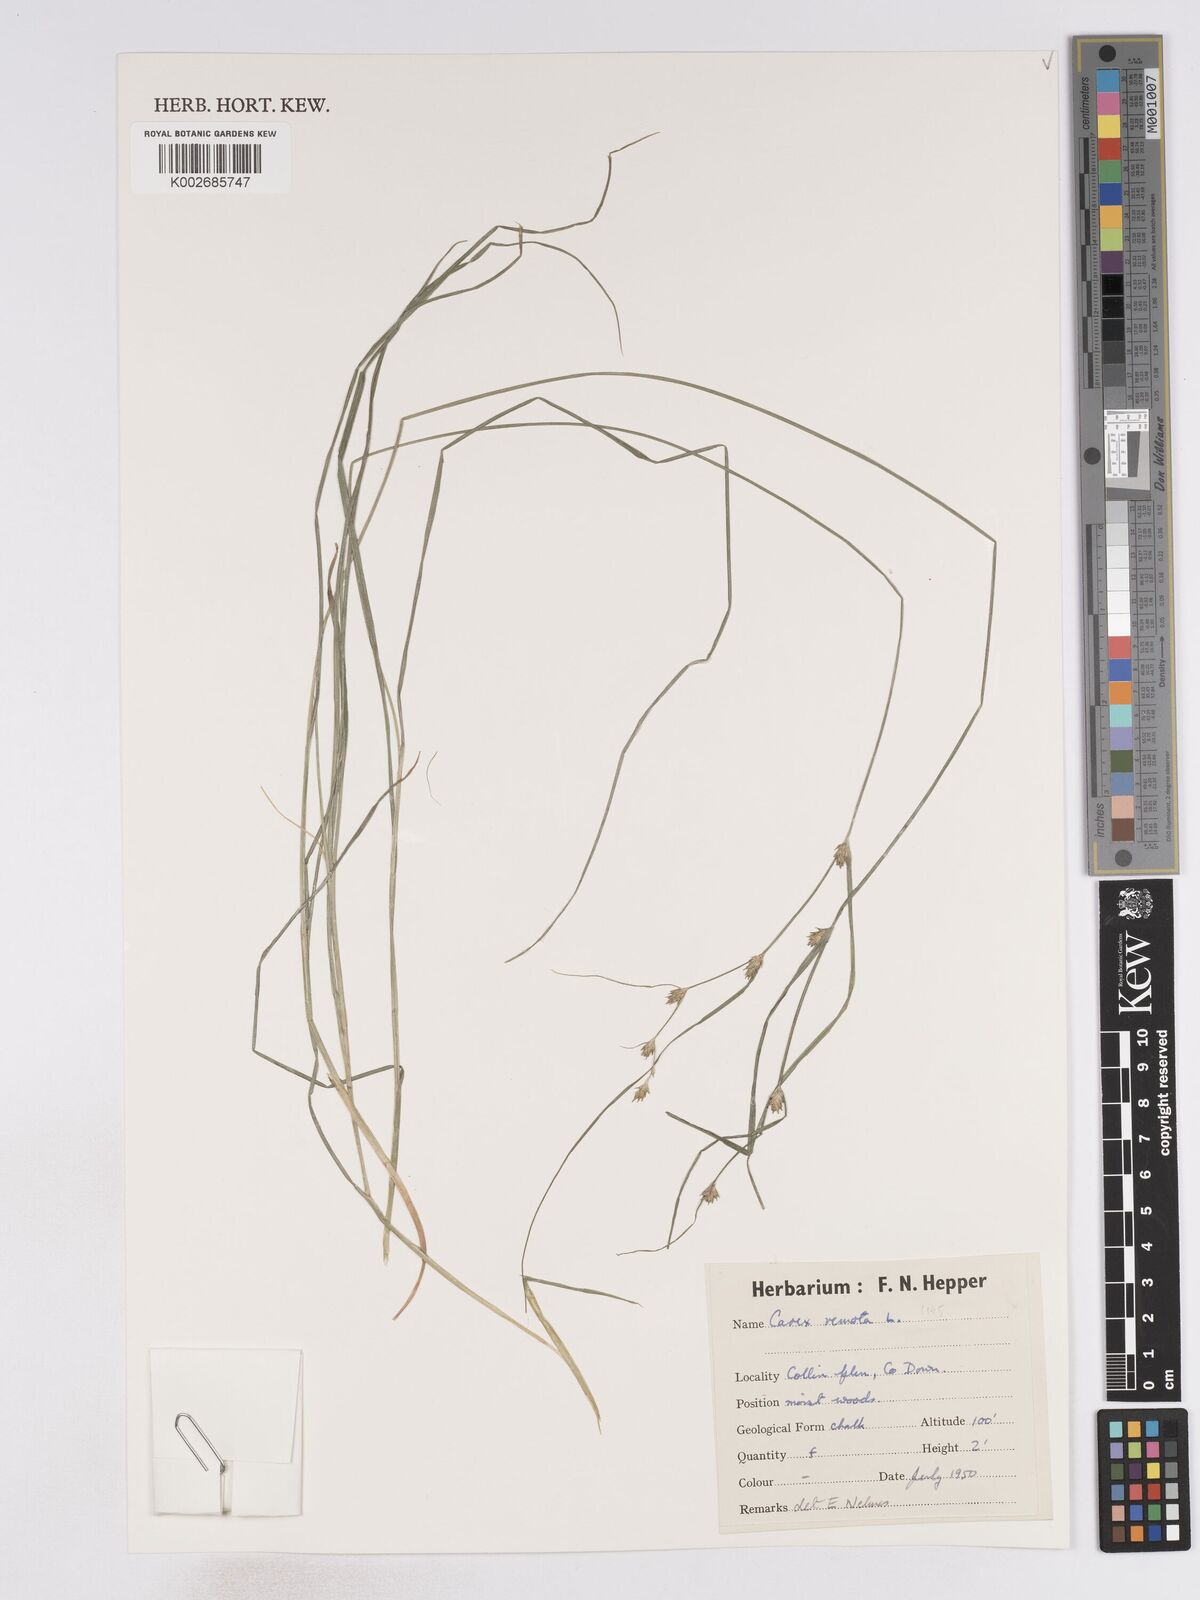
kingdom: Plantae
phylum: Tracheophyta
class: Liliopsida
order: Poales
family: Cyperaceae
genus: Carex
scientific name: Carex remota
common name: Remote sedge
